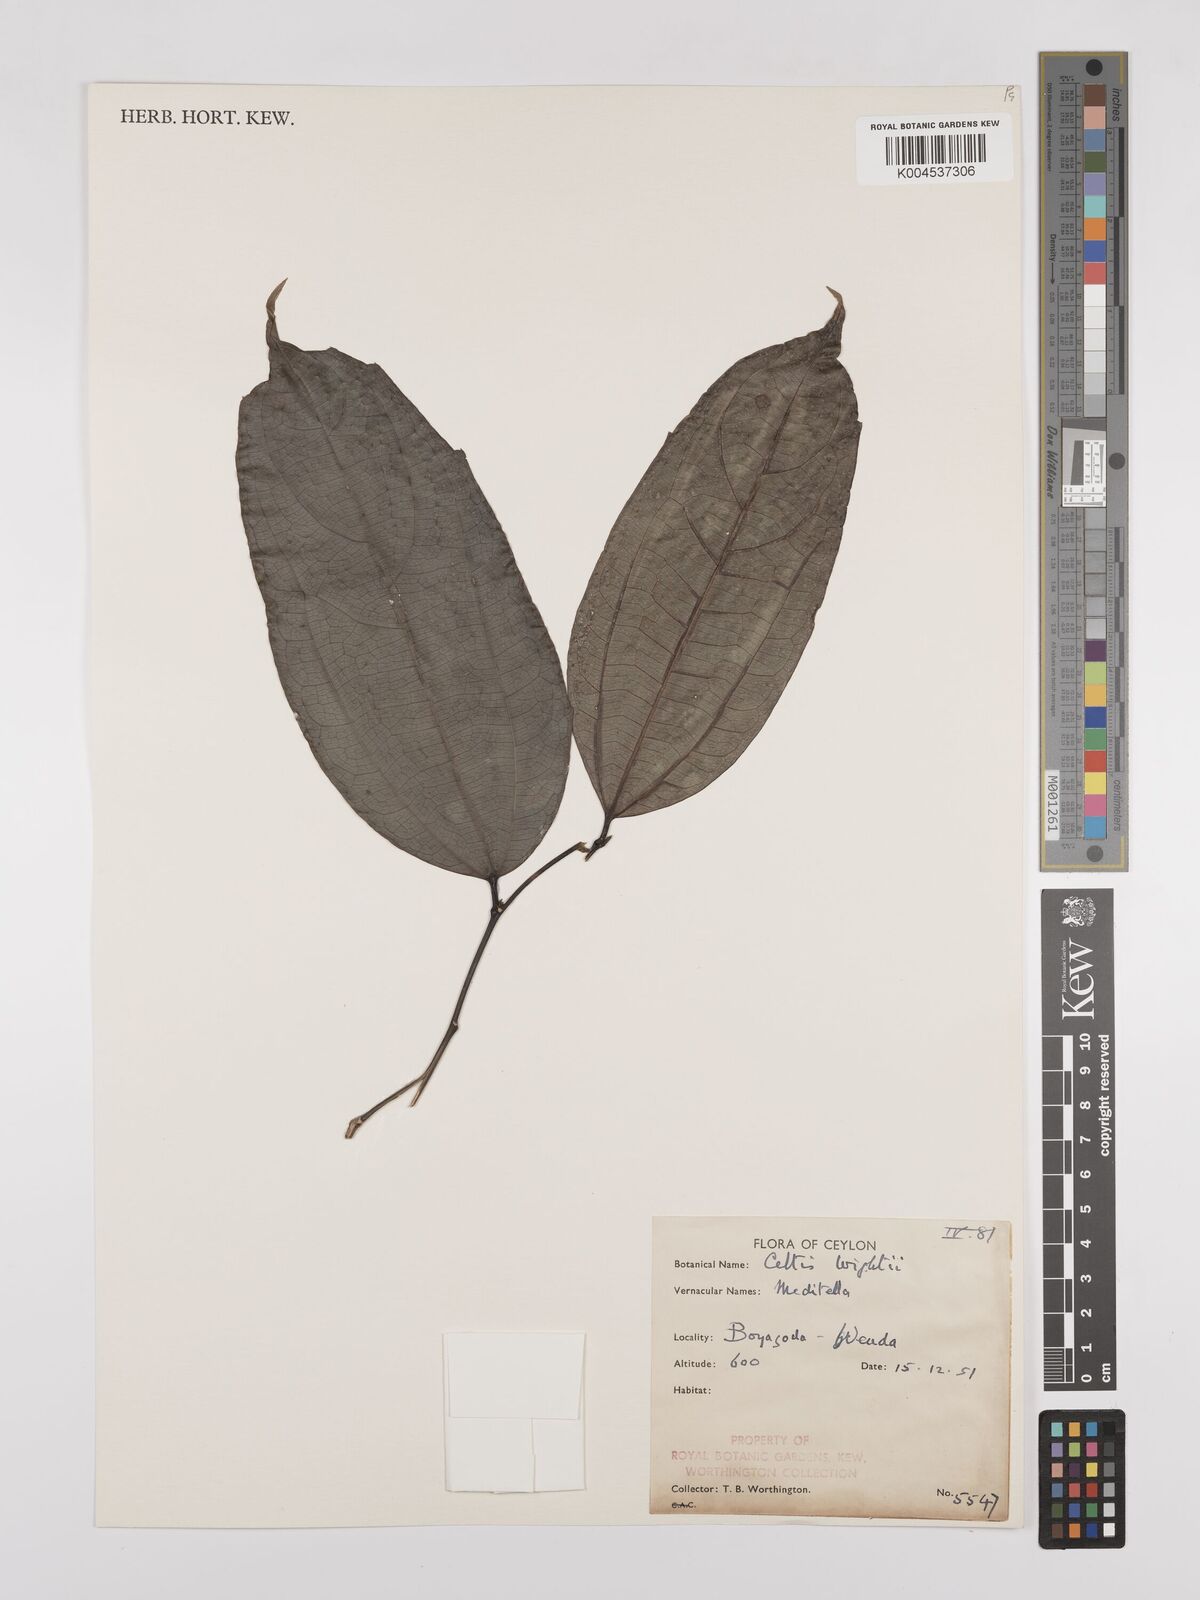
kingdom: Plantae
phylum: Tracheophyta
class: Magnoliopsida
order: Rosales
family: Cannabaceae
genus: Celtis
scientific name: Celtis philippensis
